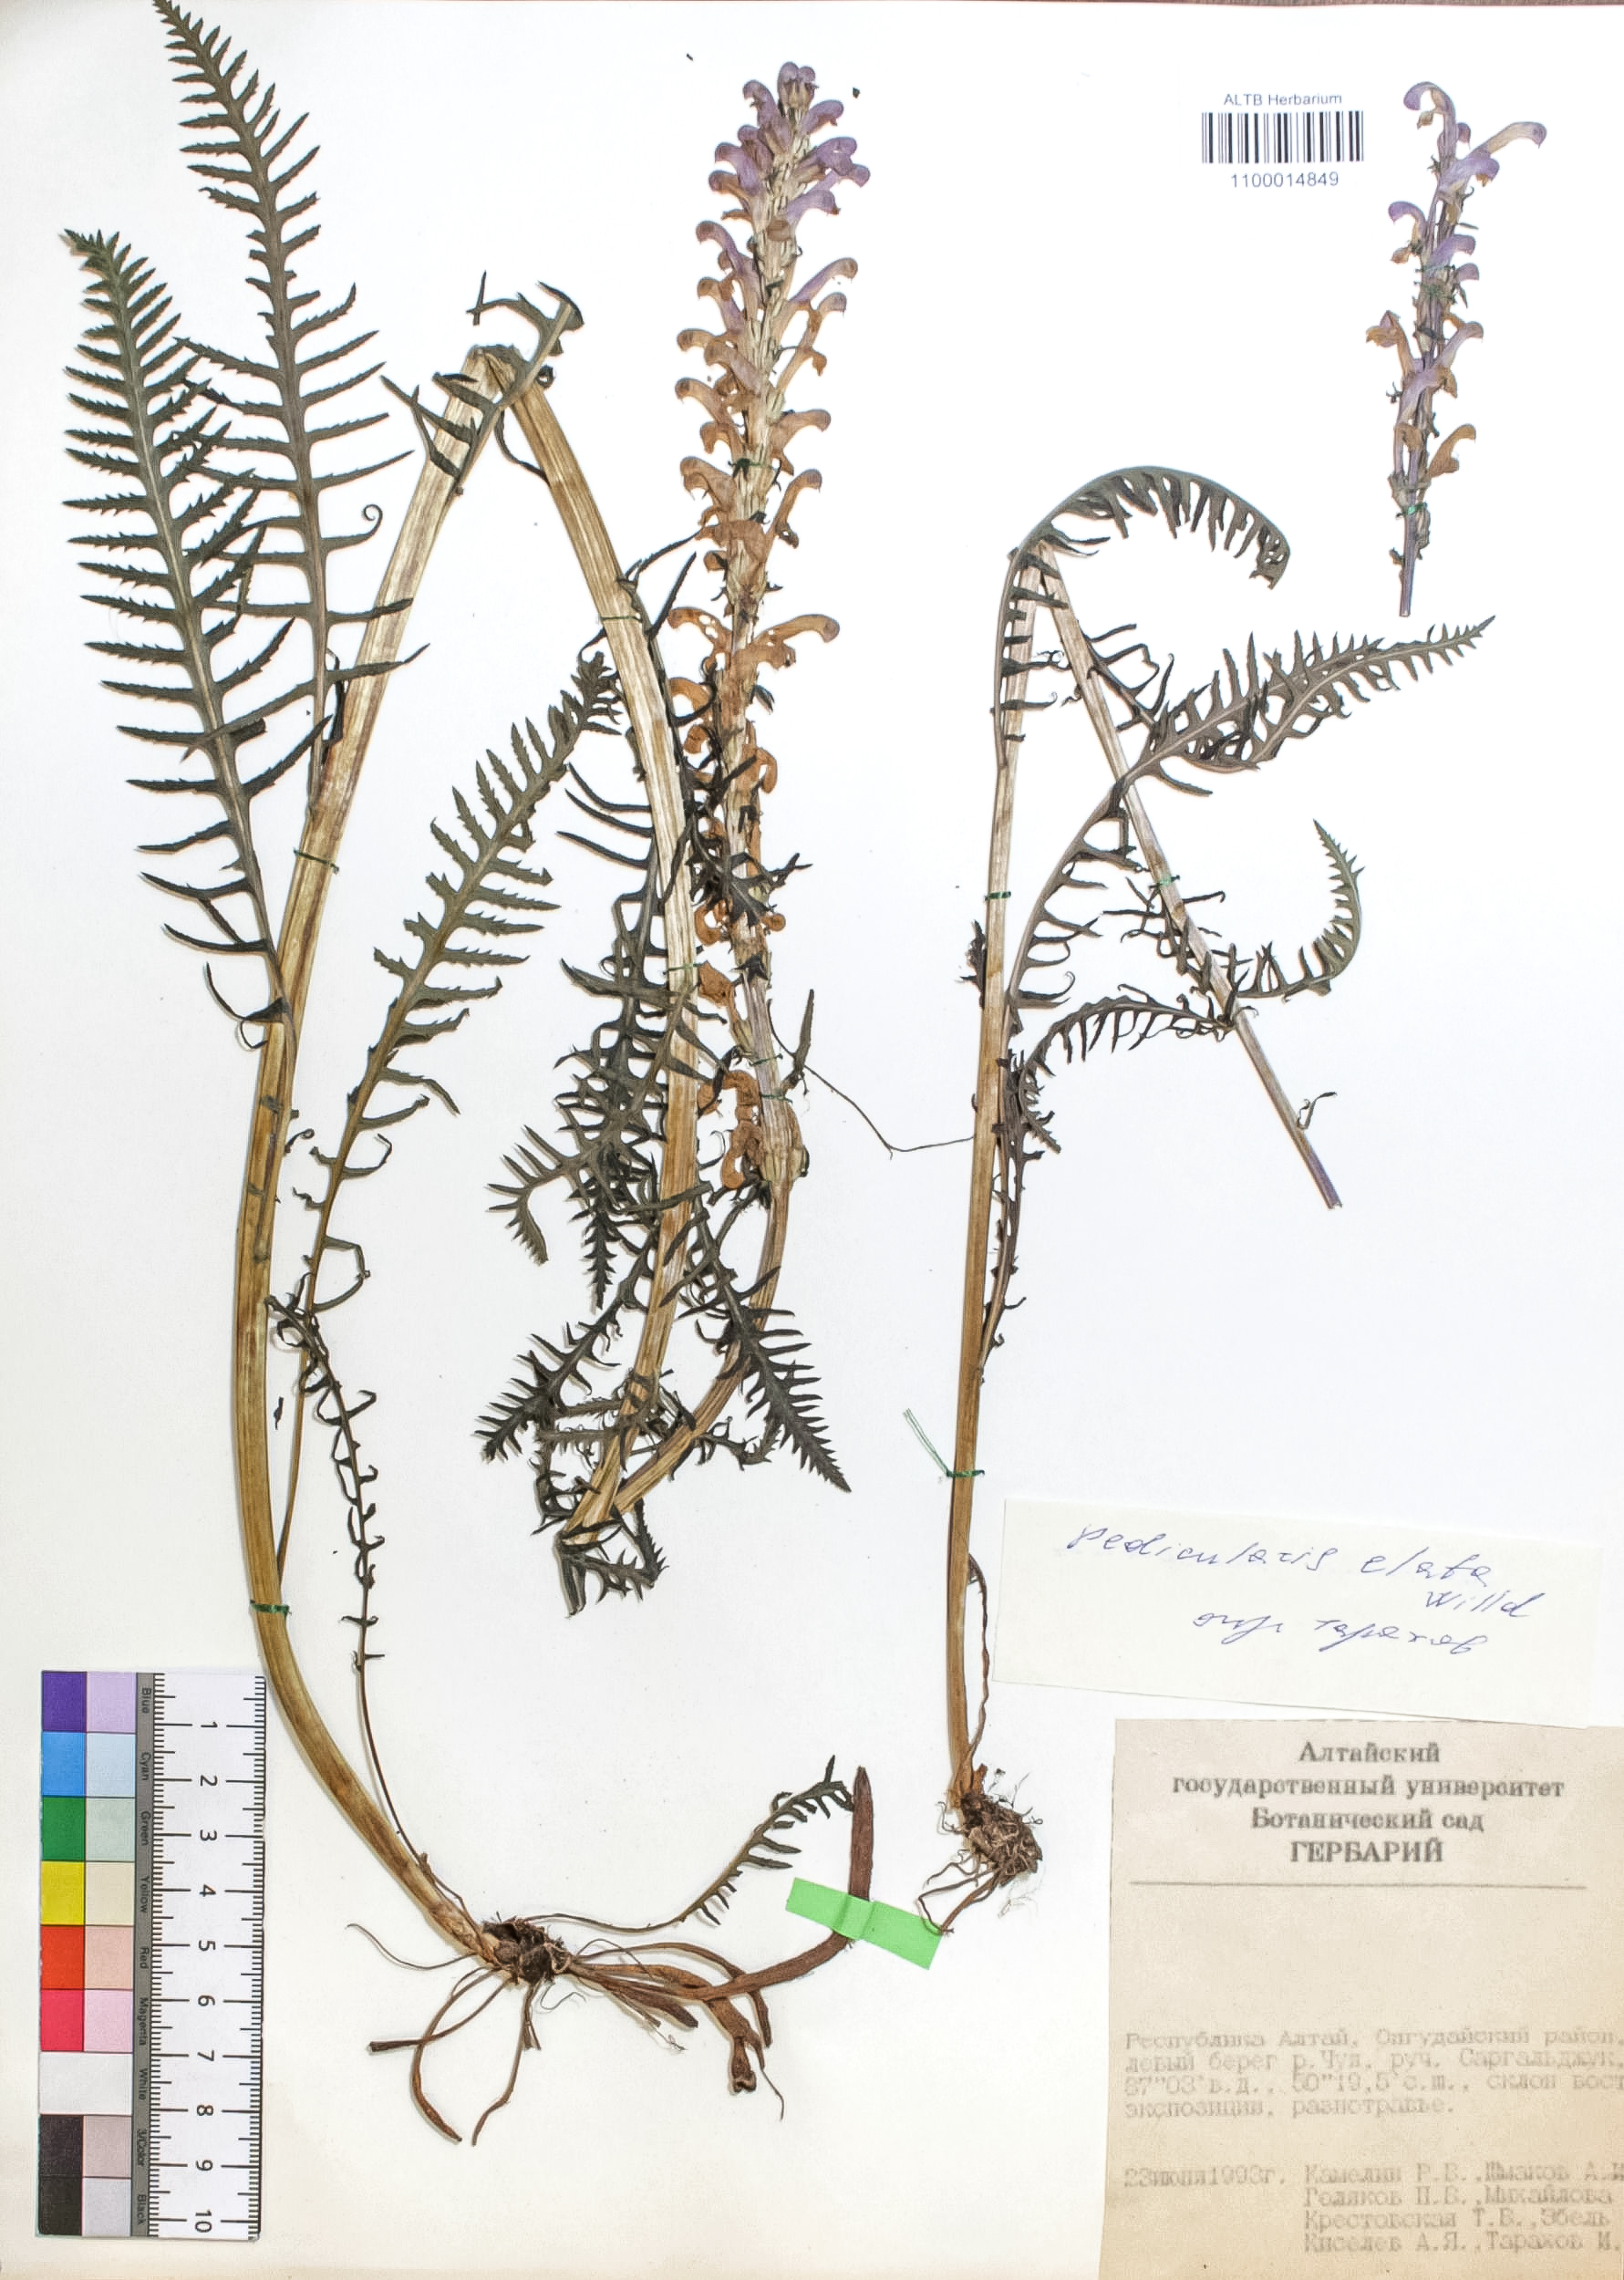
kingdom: Plantae
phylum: Tracheophyta
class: Magnoliopsida
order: Lamiales
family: Orobanchaceae
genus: Pedicularis
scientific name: Pedicularis elata
